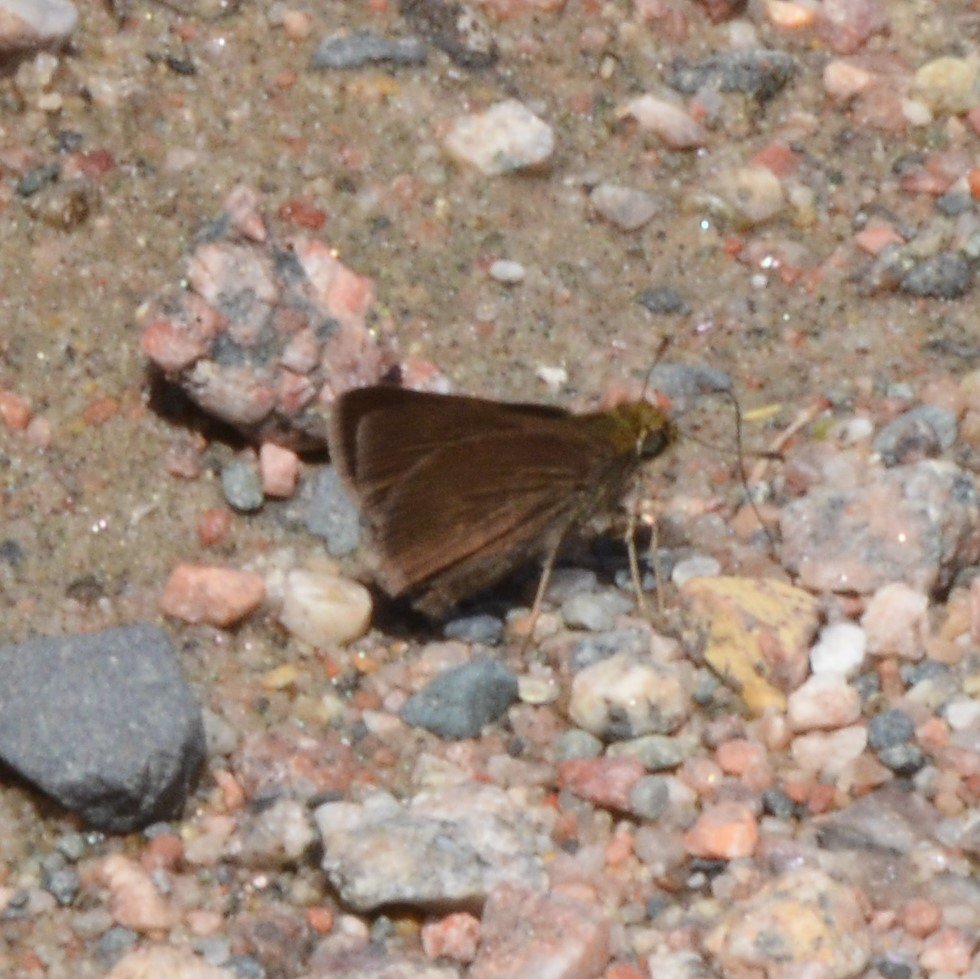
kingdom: Animalia
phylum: Arthropoda
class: Insecta
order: Lepidoptera
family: Hesperiidae
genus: Euphyes
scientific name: Euphyes vestris
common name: Dun Skipper
